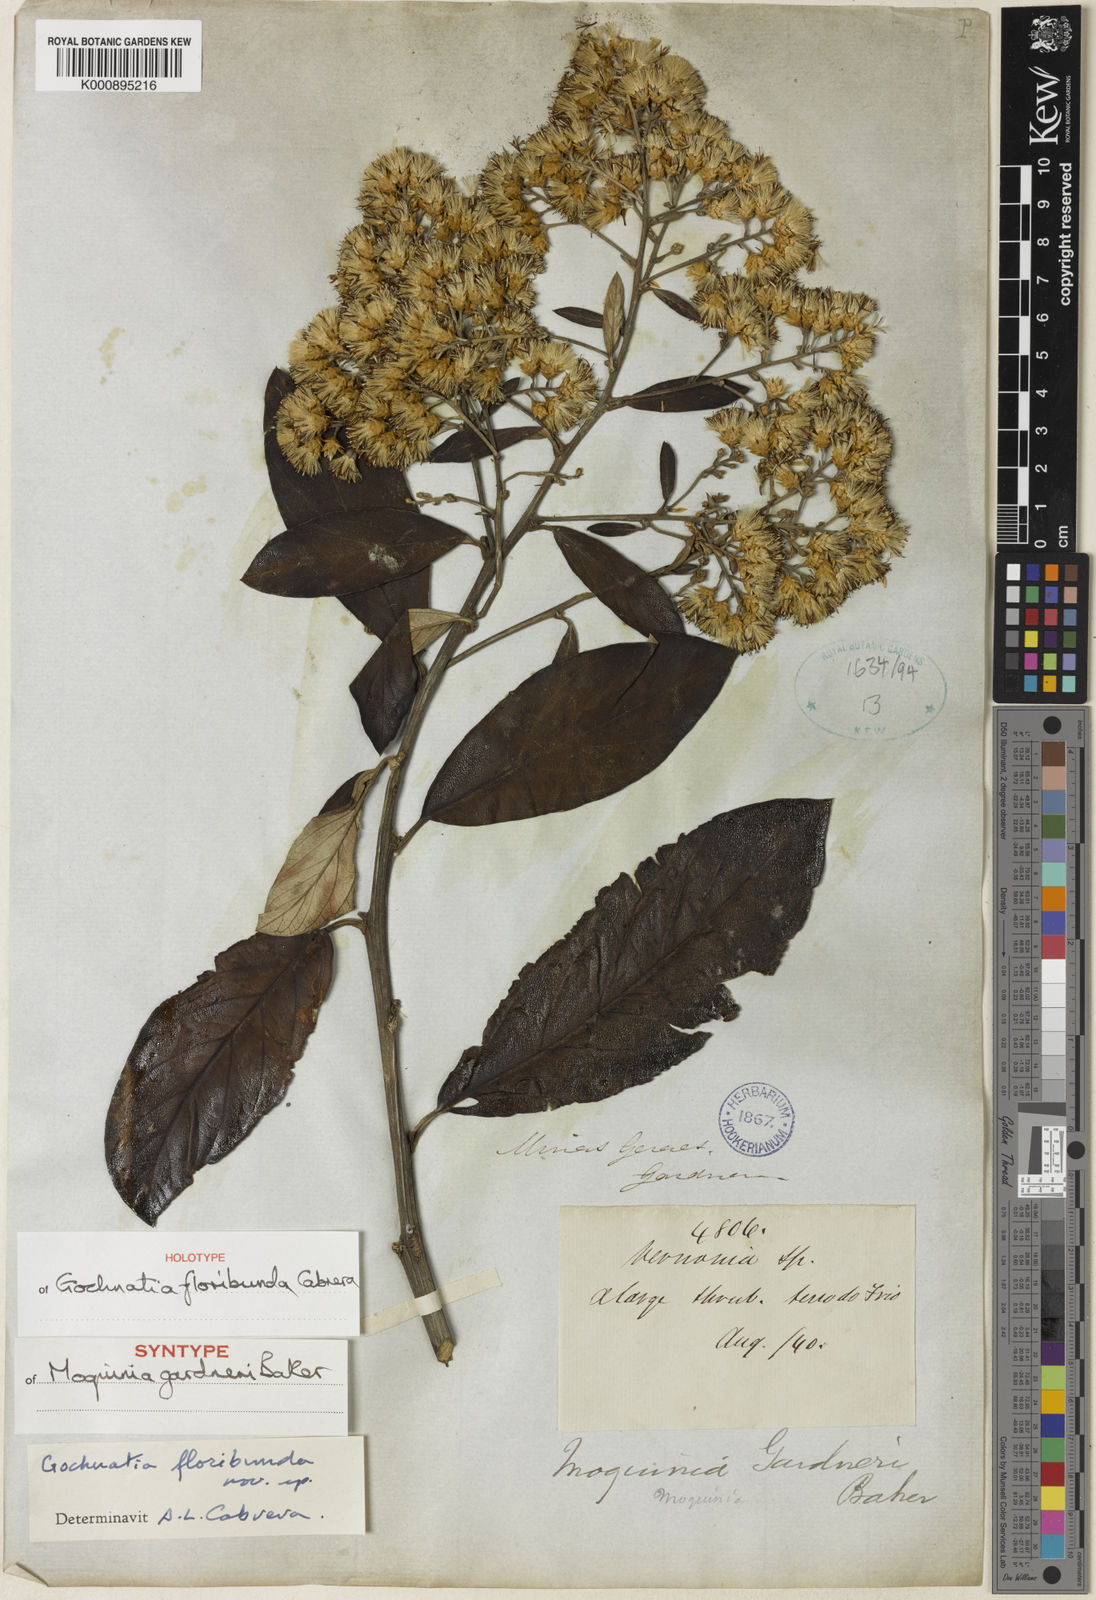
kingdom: Plantae
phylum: Tracheophyta
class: Magnoliopsida
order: Asterales
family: Asteraceae
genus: Moquiniastrum
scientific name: Moquiniastrum floribundum
